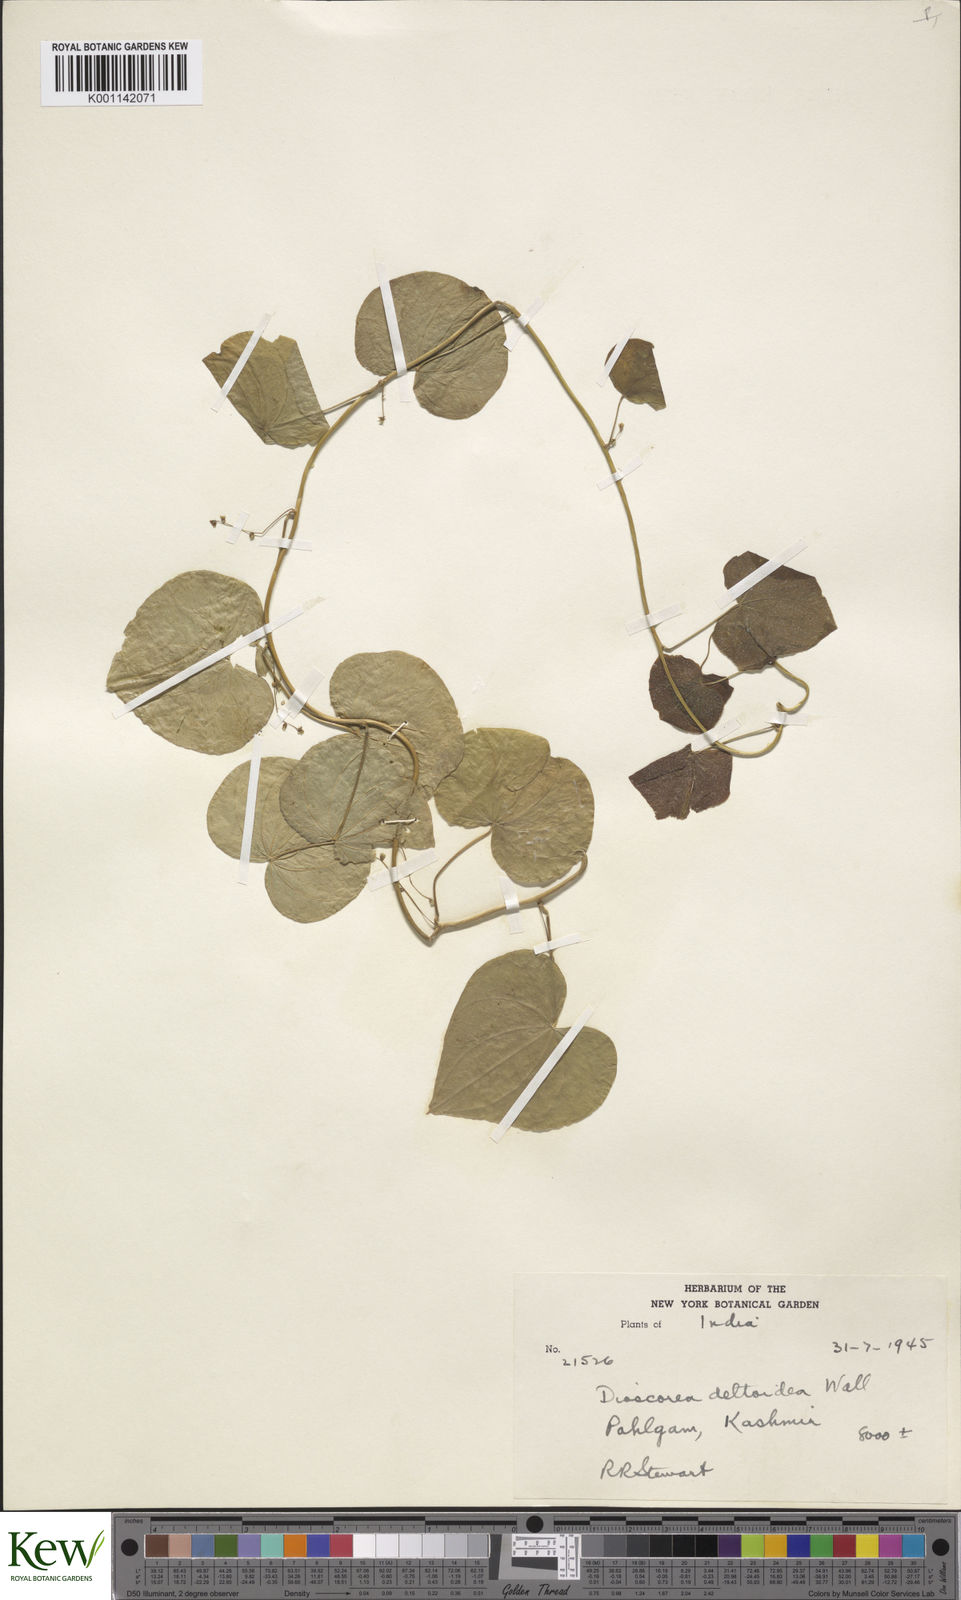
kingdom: Plantae
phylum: Tracheophyta
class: Liliopsida
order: Dioscoreales
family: Dioscoreaceae
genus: Dioscorea
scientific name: Dioscorea deltoidea
